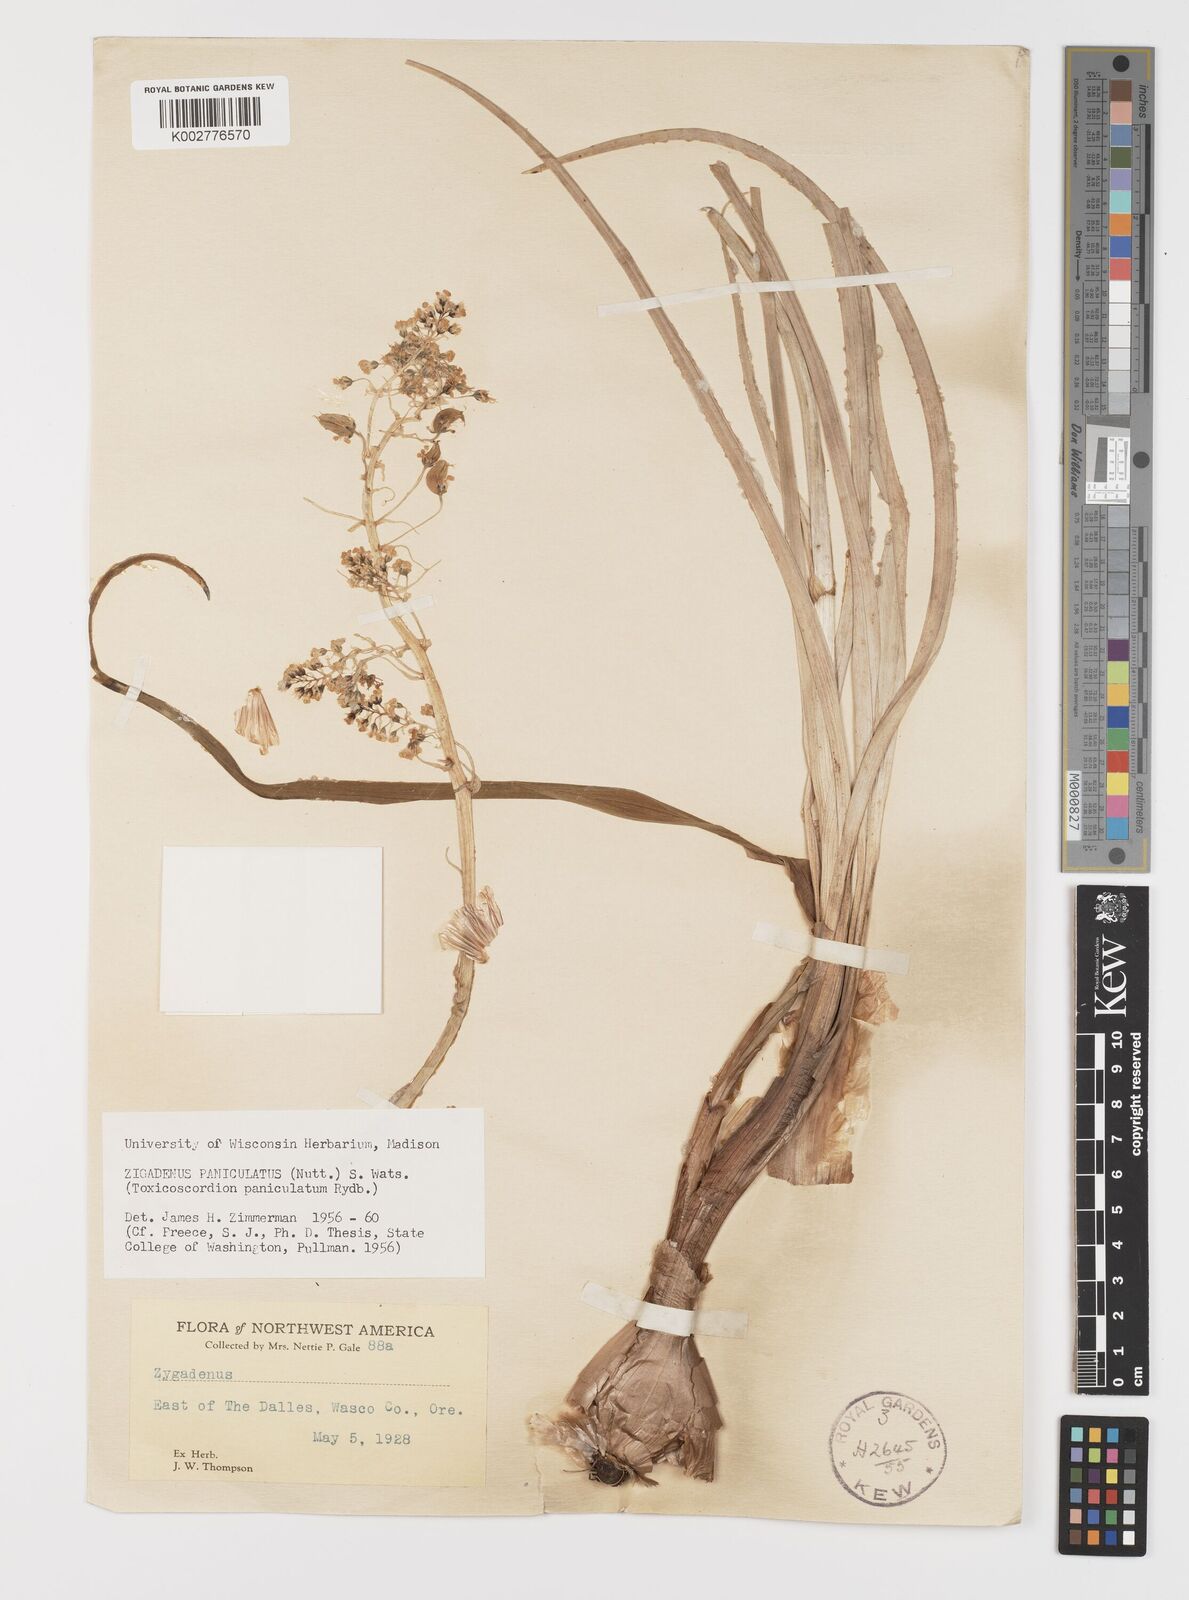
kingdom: Plantae
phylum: Tracheophyta
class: Liliopsida
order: Liliales
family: Melanthiaceae
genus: Toxicoscordion
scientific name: Toxicoscordion paniculatum
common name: Foothill death camas
